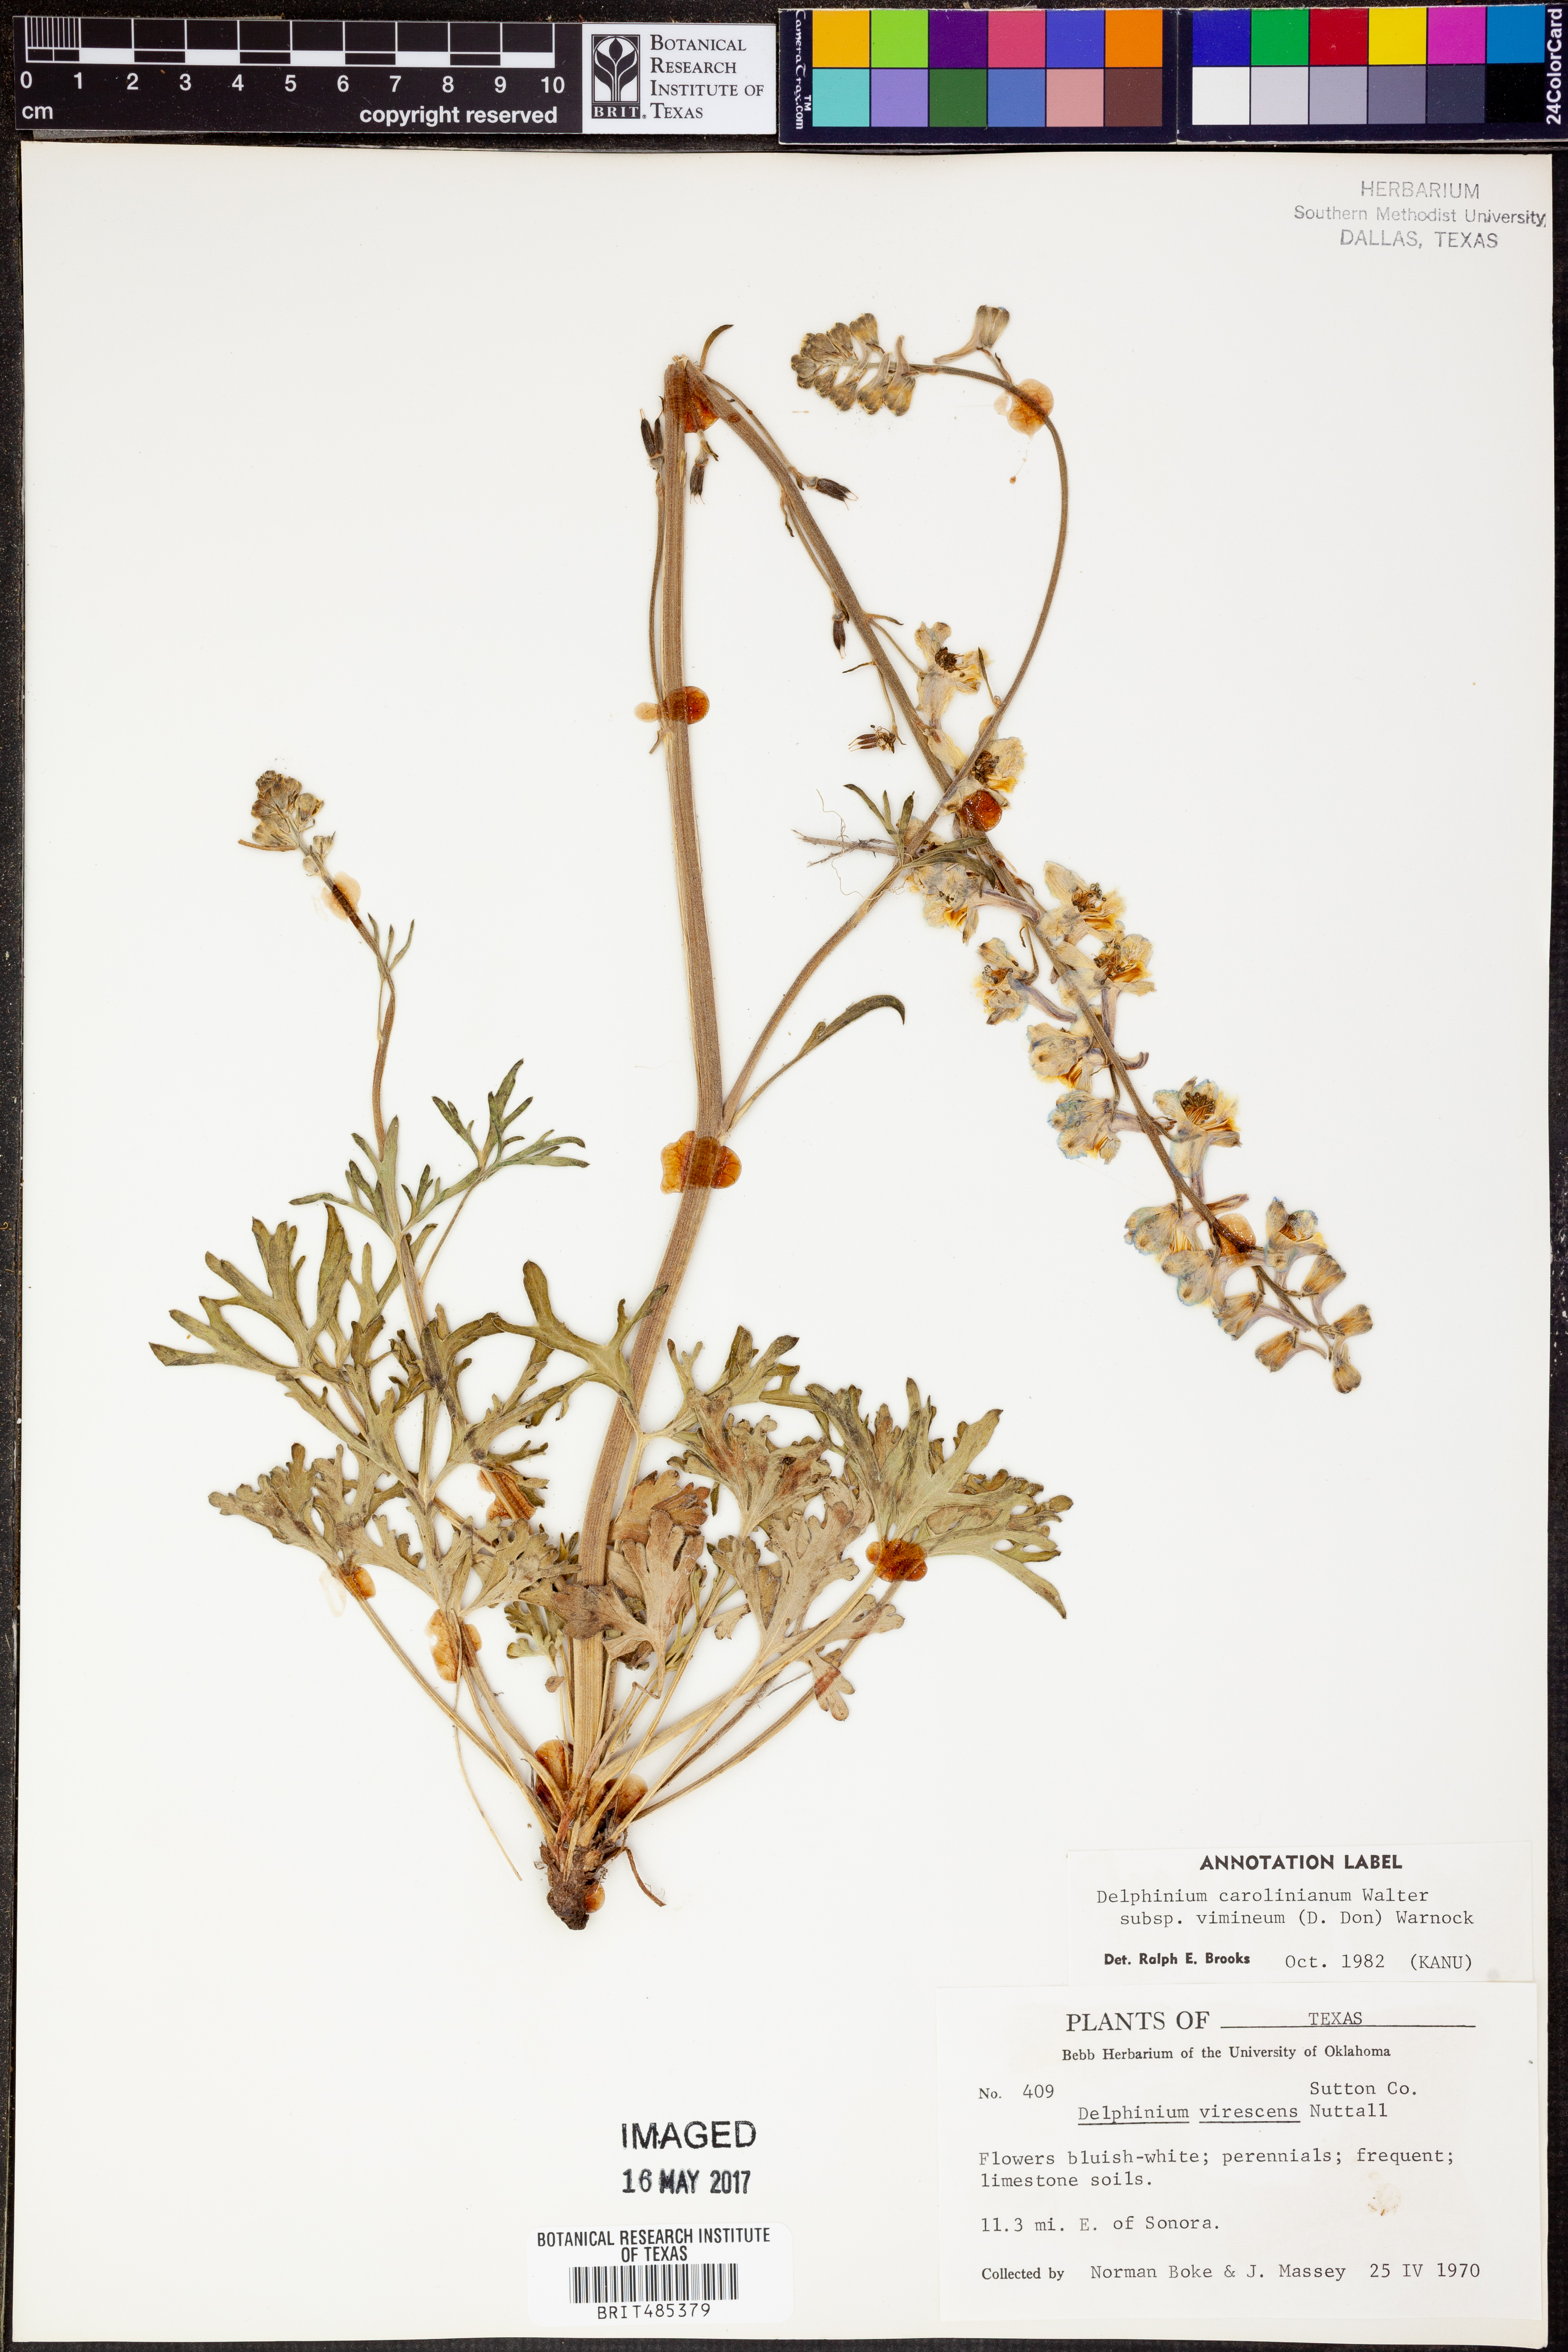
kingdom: Plantae
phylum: Tracheophyta
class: Magnoliopsida
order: Ranunculales
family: Ranunculaceae
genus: Delphinium
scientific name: Delphinium carolinianum
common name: Carolina larkspur
